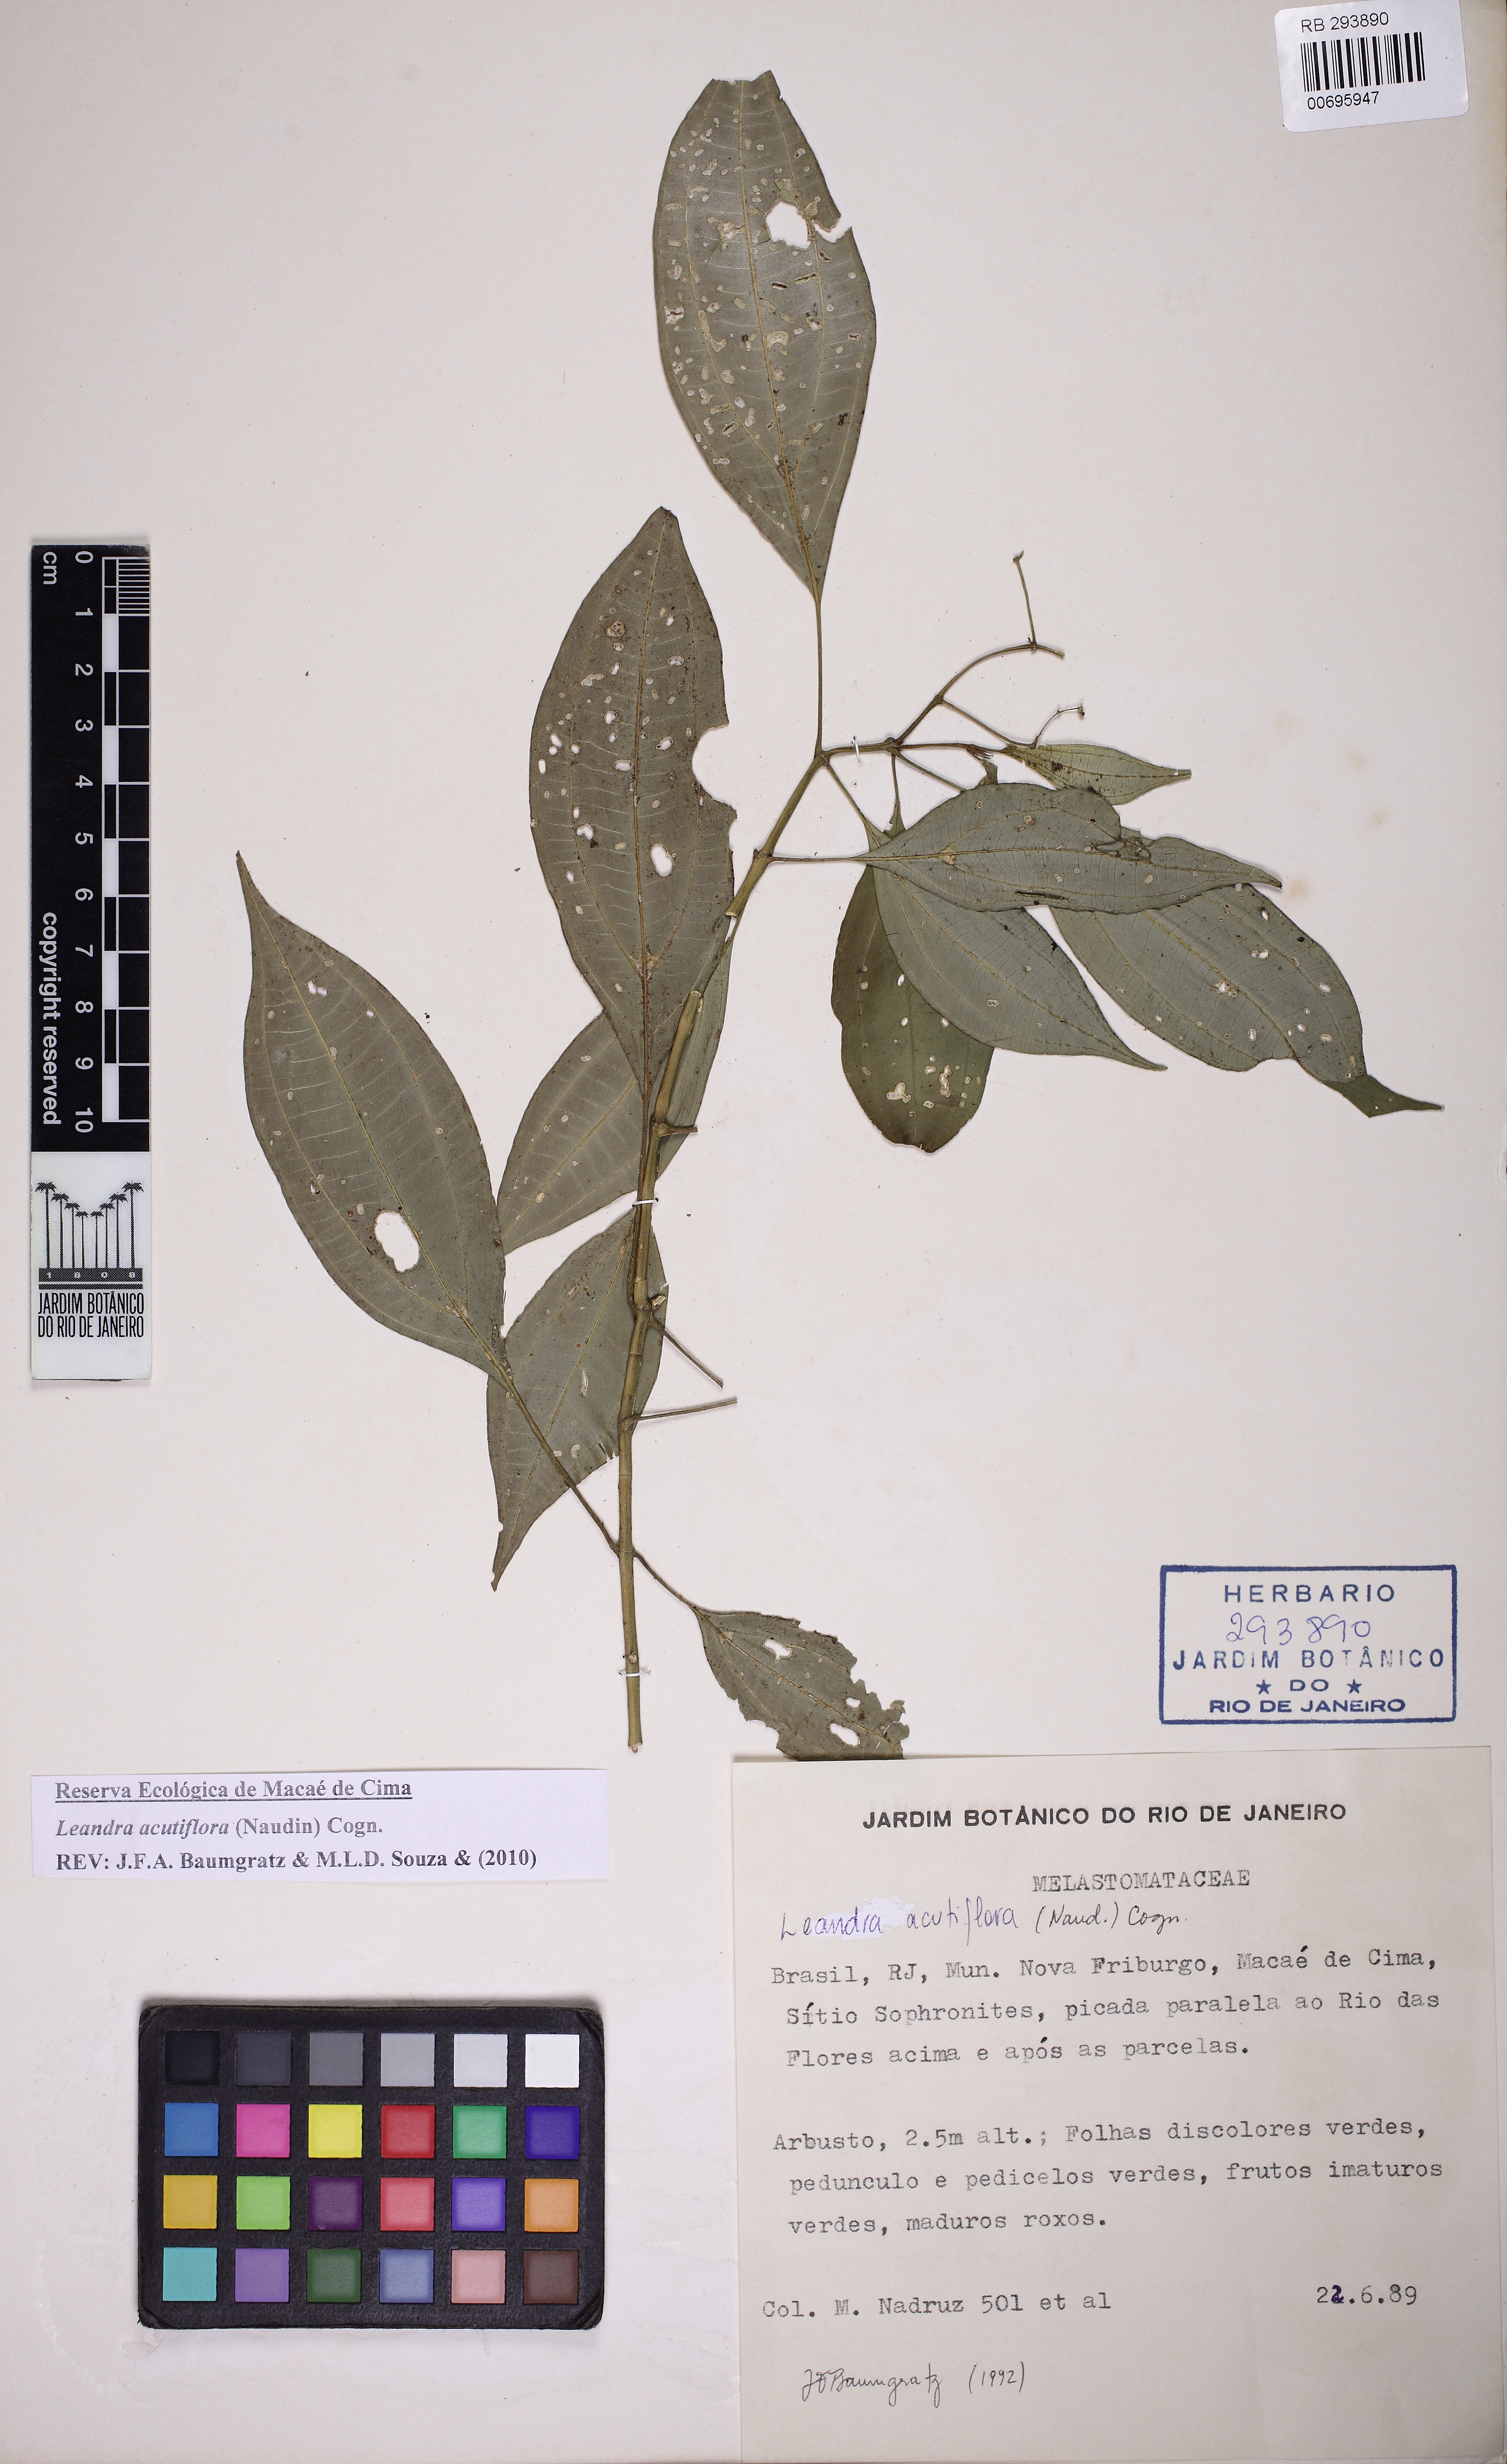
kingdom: Plantae
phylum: Tracheophyta
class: Magnoliopsida
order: Myrtales
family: Melastomataceae
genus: Miconia
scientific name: Miconia acutiflora
